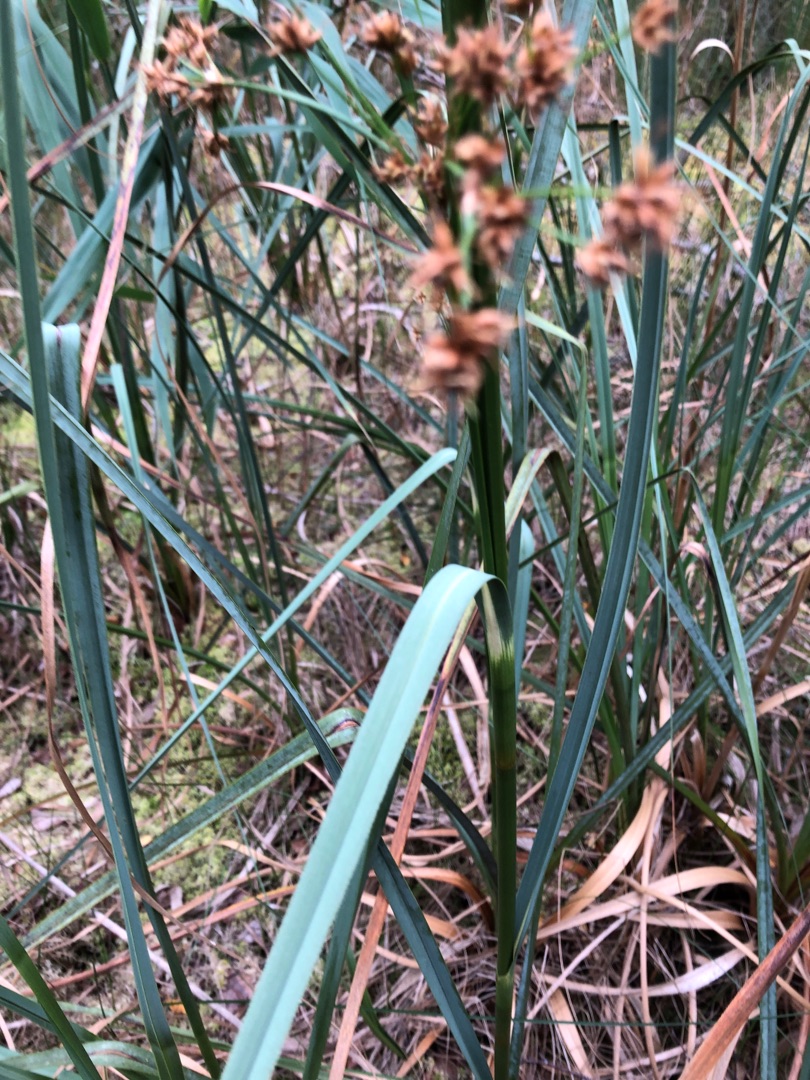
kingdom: Plantae
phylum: Tracheophyta
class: Liliopsida
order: Poales
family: Cyperaceae
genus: Cladium
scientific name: Cladium mariscus
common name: Hvas avneknippe
